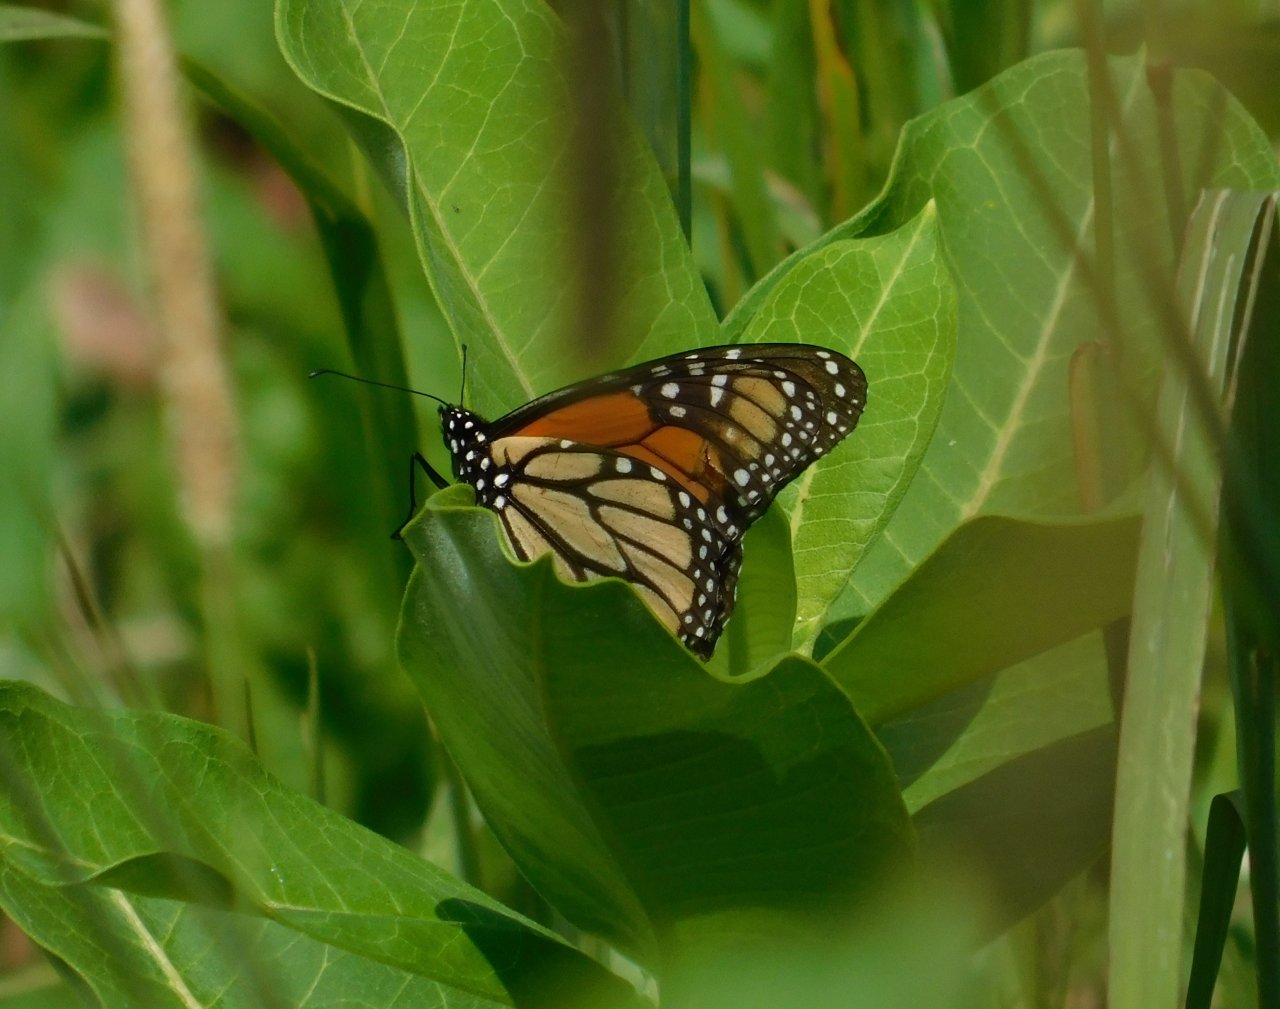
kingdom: Animalia
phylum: Arthropoda
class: Insecta
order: Lepidoptera
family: Nymphalidae
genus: Danaus
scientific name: Danaus plexippus
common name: Monarch
